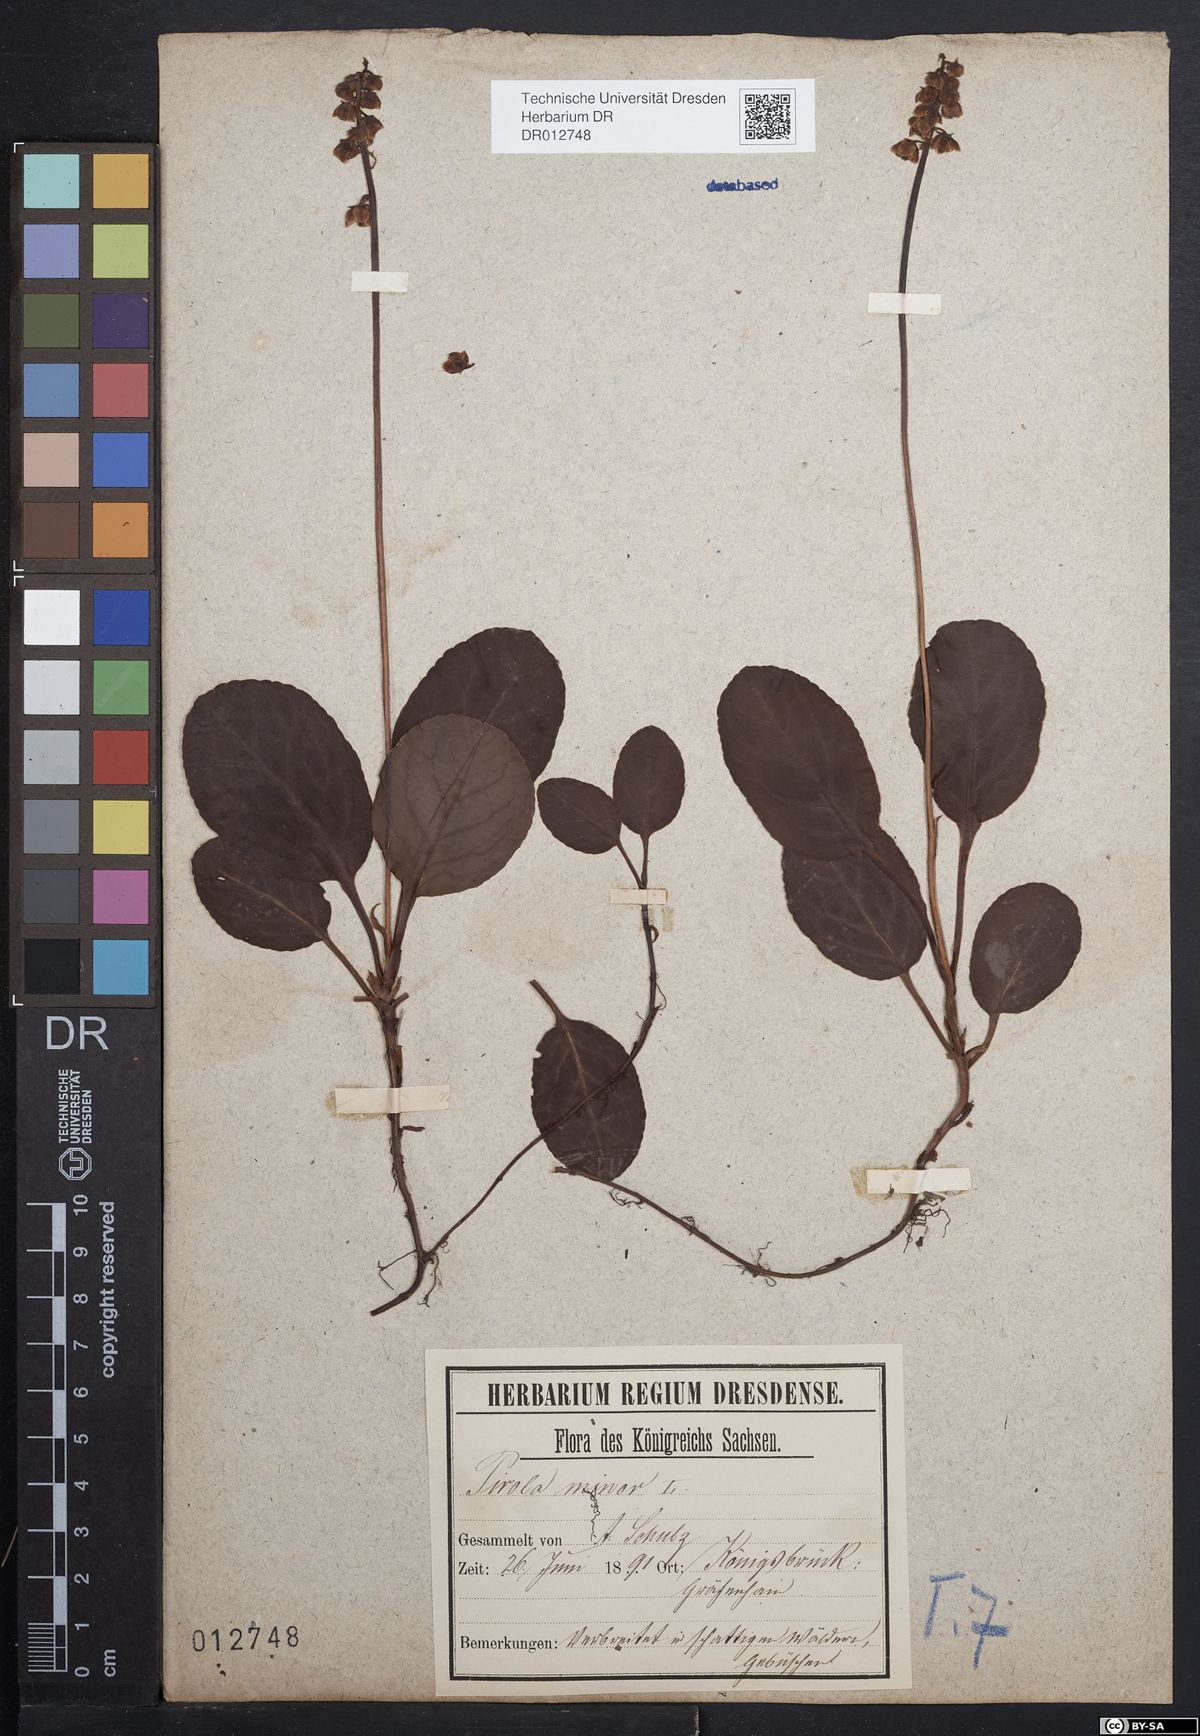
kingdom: Plantae
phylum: Tracheophyta
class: Magnoliopsida
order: Ericales
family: Ericaceae
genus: Pyrola
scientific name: Pyrola minor
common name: Common wintergreen
